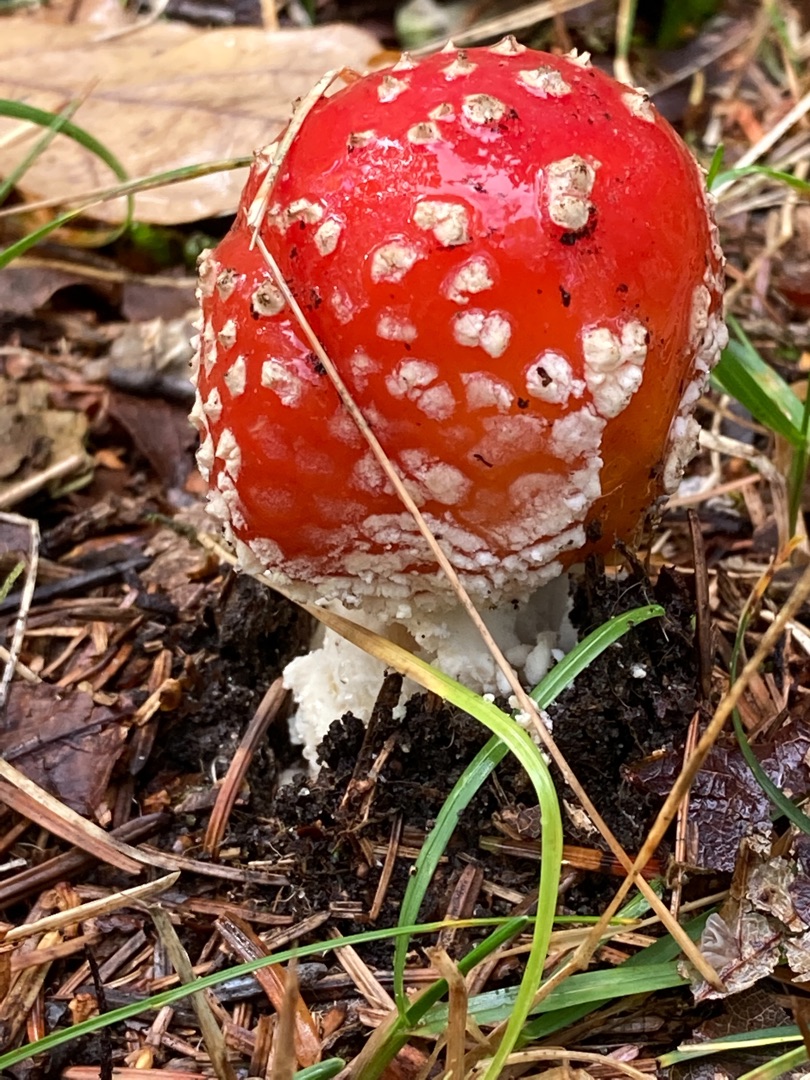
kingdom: Fungi
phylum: Basidiomycota
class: Agaricomycetes
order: Agaricales
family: Amanitaceae
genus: Amanita
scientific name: Amanita muscaria
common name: Rød fluesvamp
